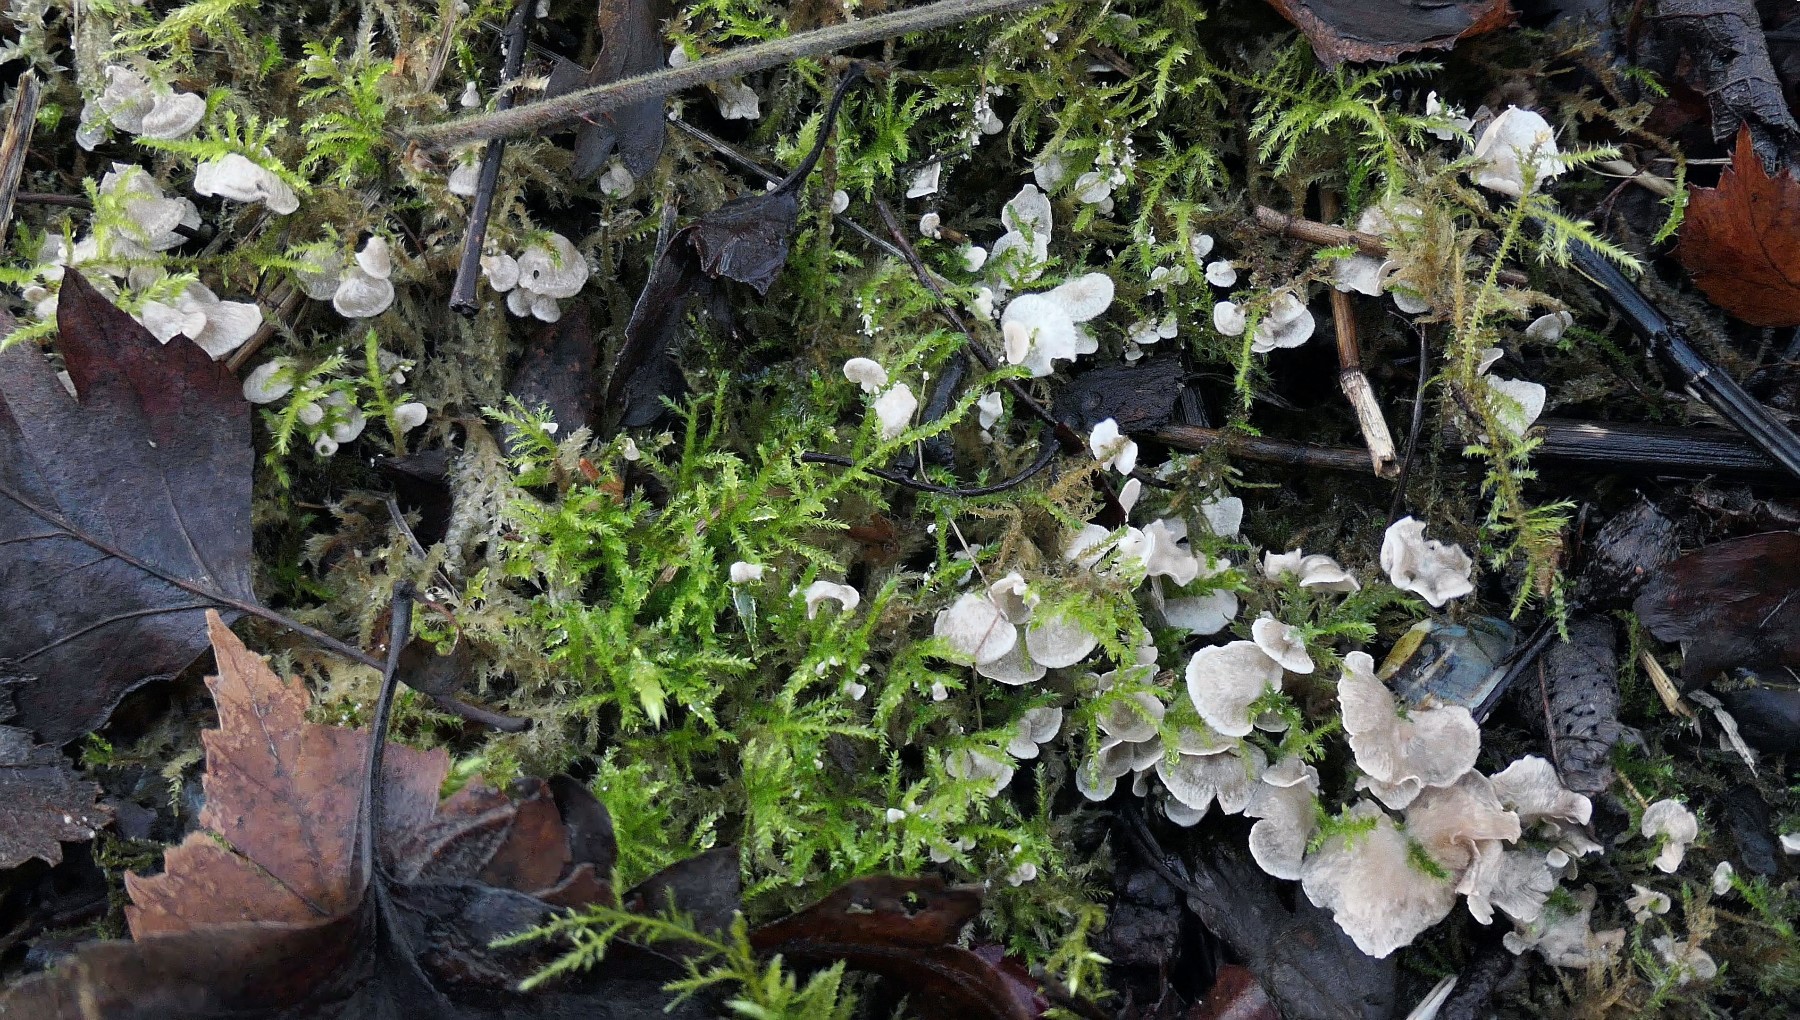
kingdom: Fungi
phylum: Basidiomycota
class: Agaricomycetes
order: Agaricales
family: Hygrophoraceae
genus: Arrhenia
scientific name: Arrhenia retiruga
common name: lille fontænehat
